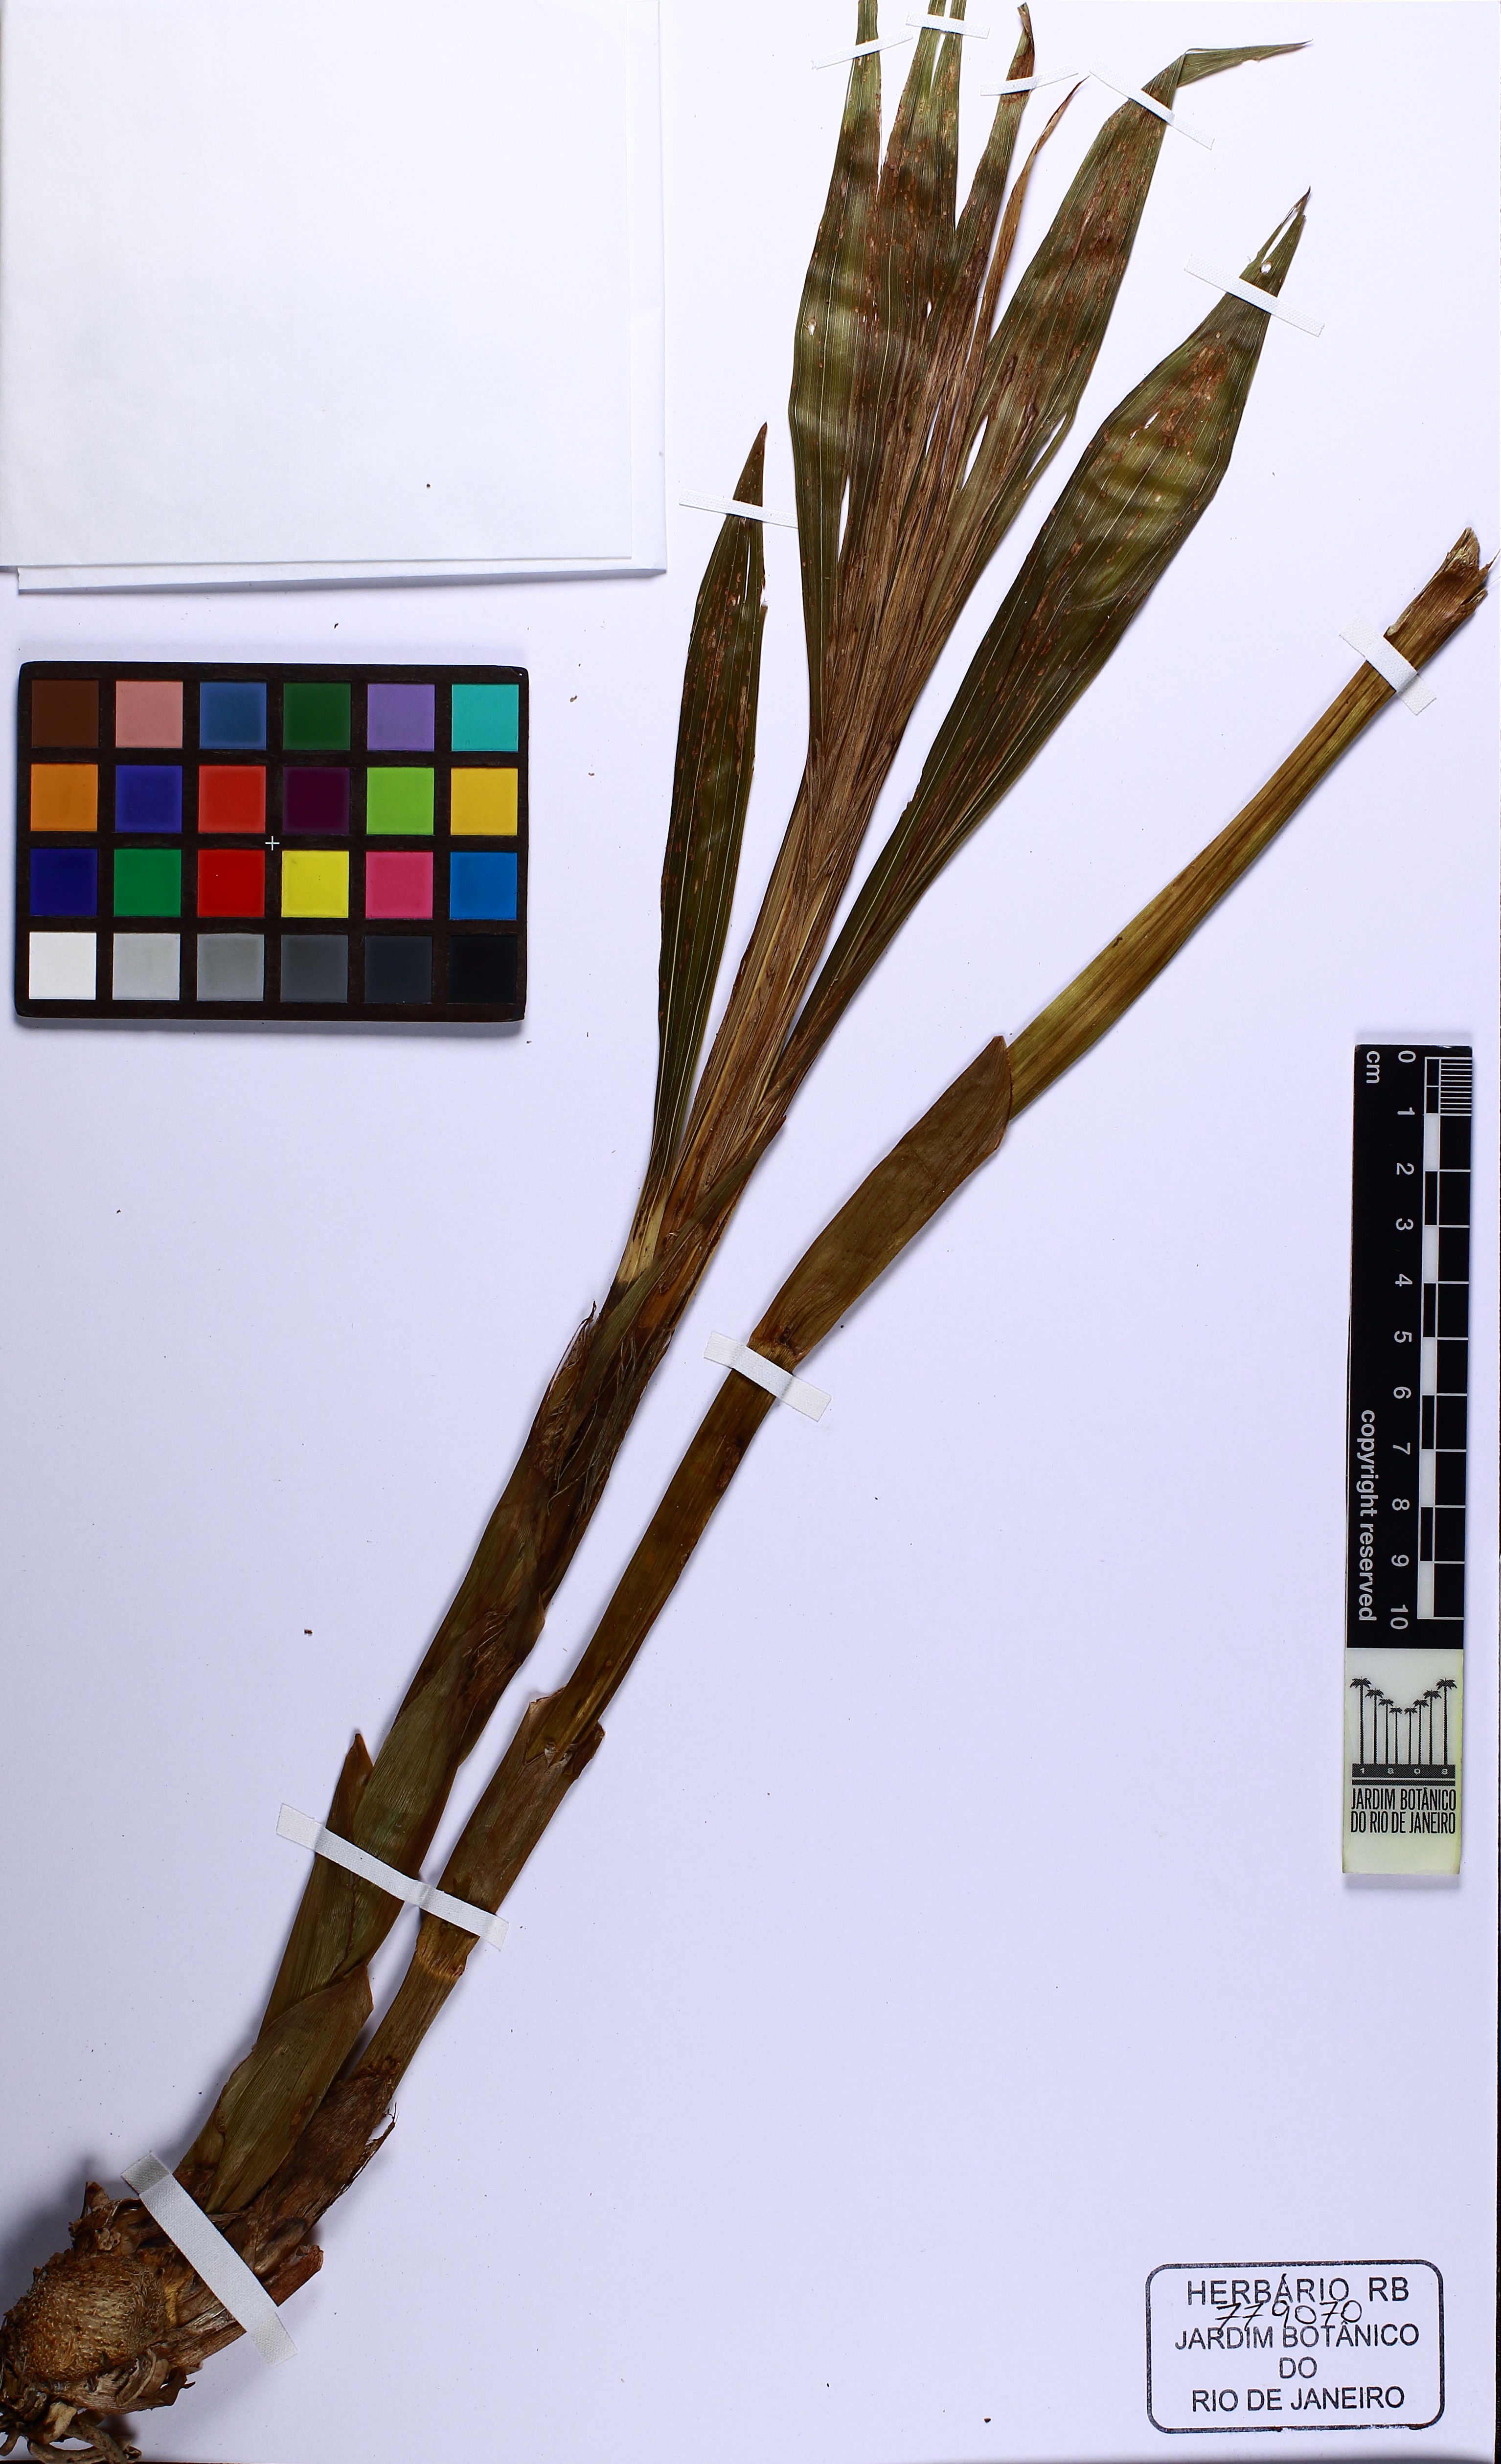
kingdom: Plantae
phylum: Tracheophyta
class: Liliopsida
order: Asparagales
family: Orchidaceae
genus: Cyrtopodium
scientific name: Cyrtopodium flavum
